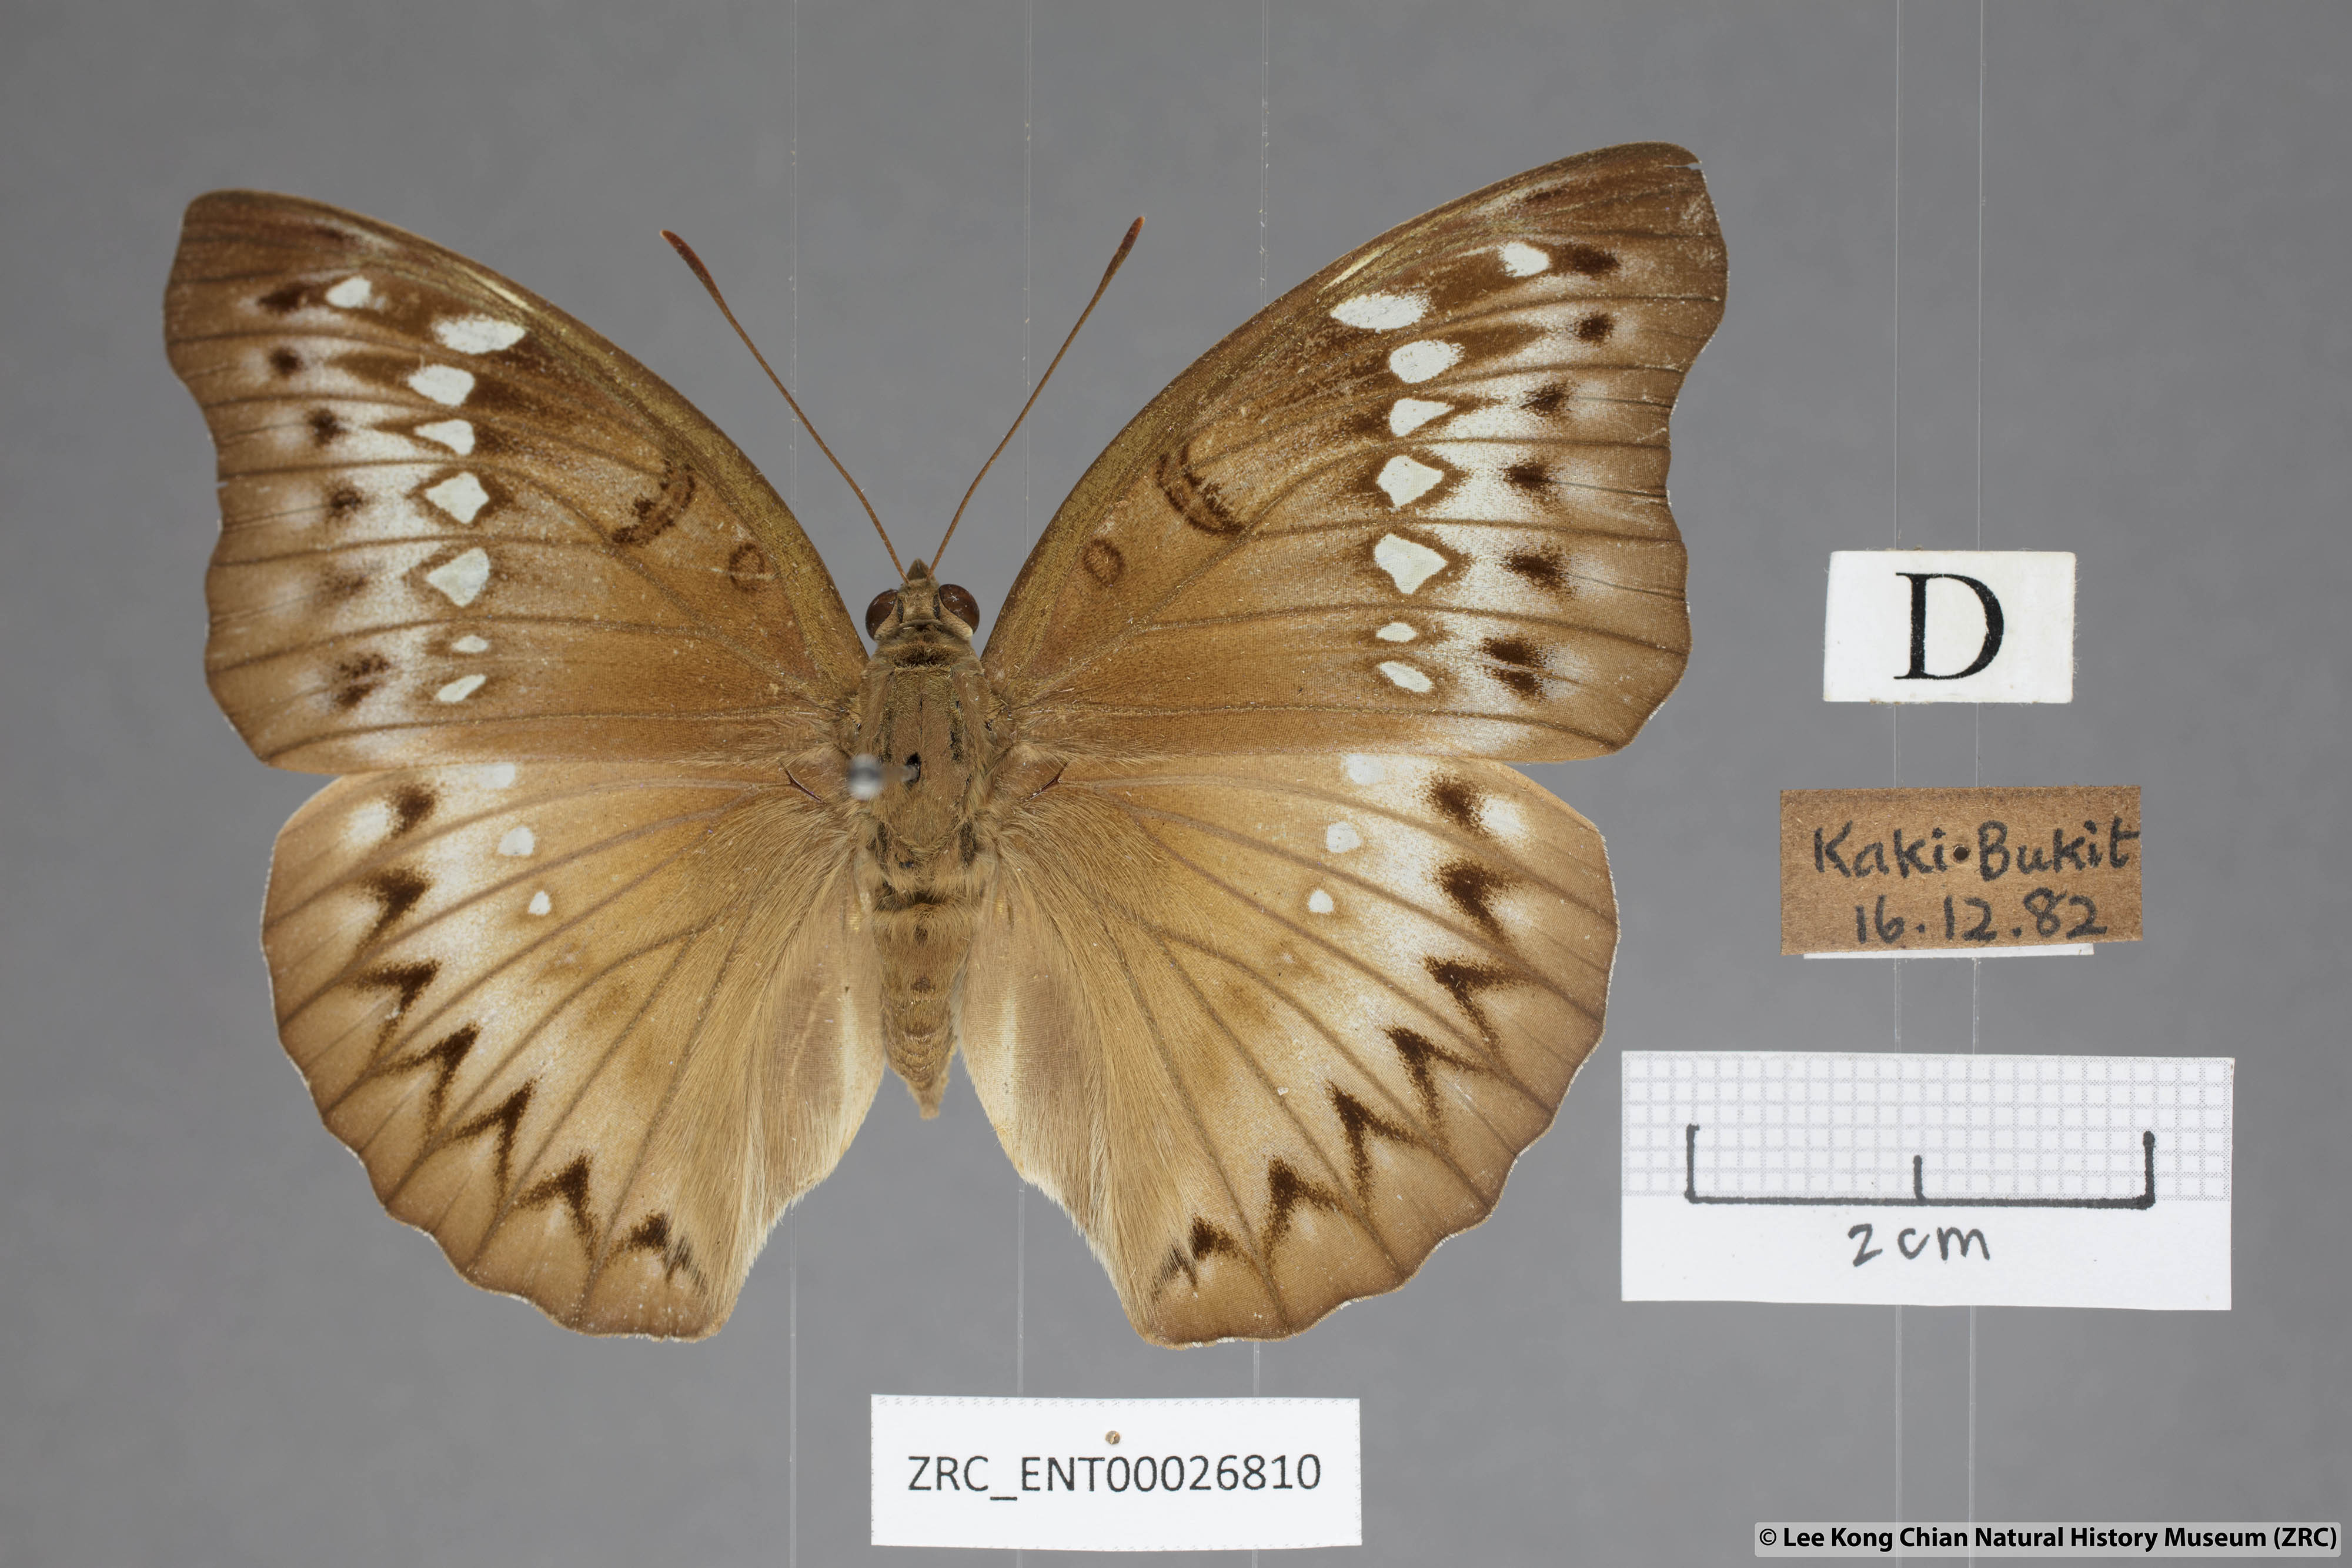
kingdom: Animalia
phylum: Arthropoda
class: Insecta
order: Lepidoptera
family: Nymphalidae
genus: Euthalia
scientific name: Euthalia Bassarona teuta
